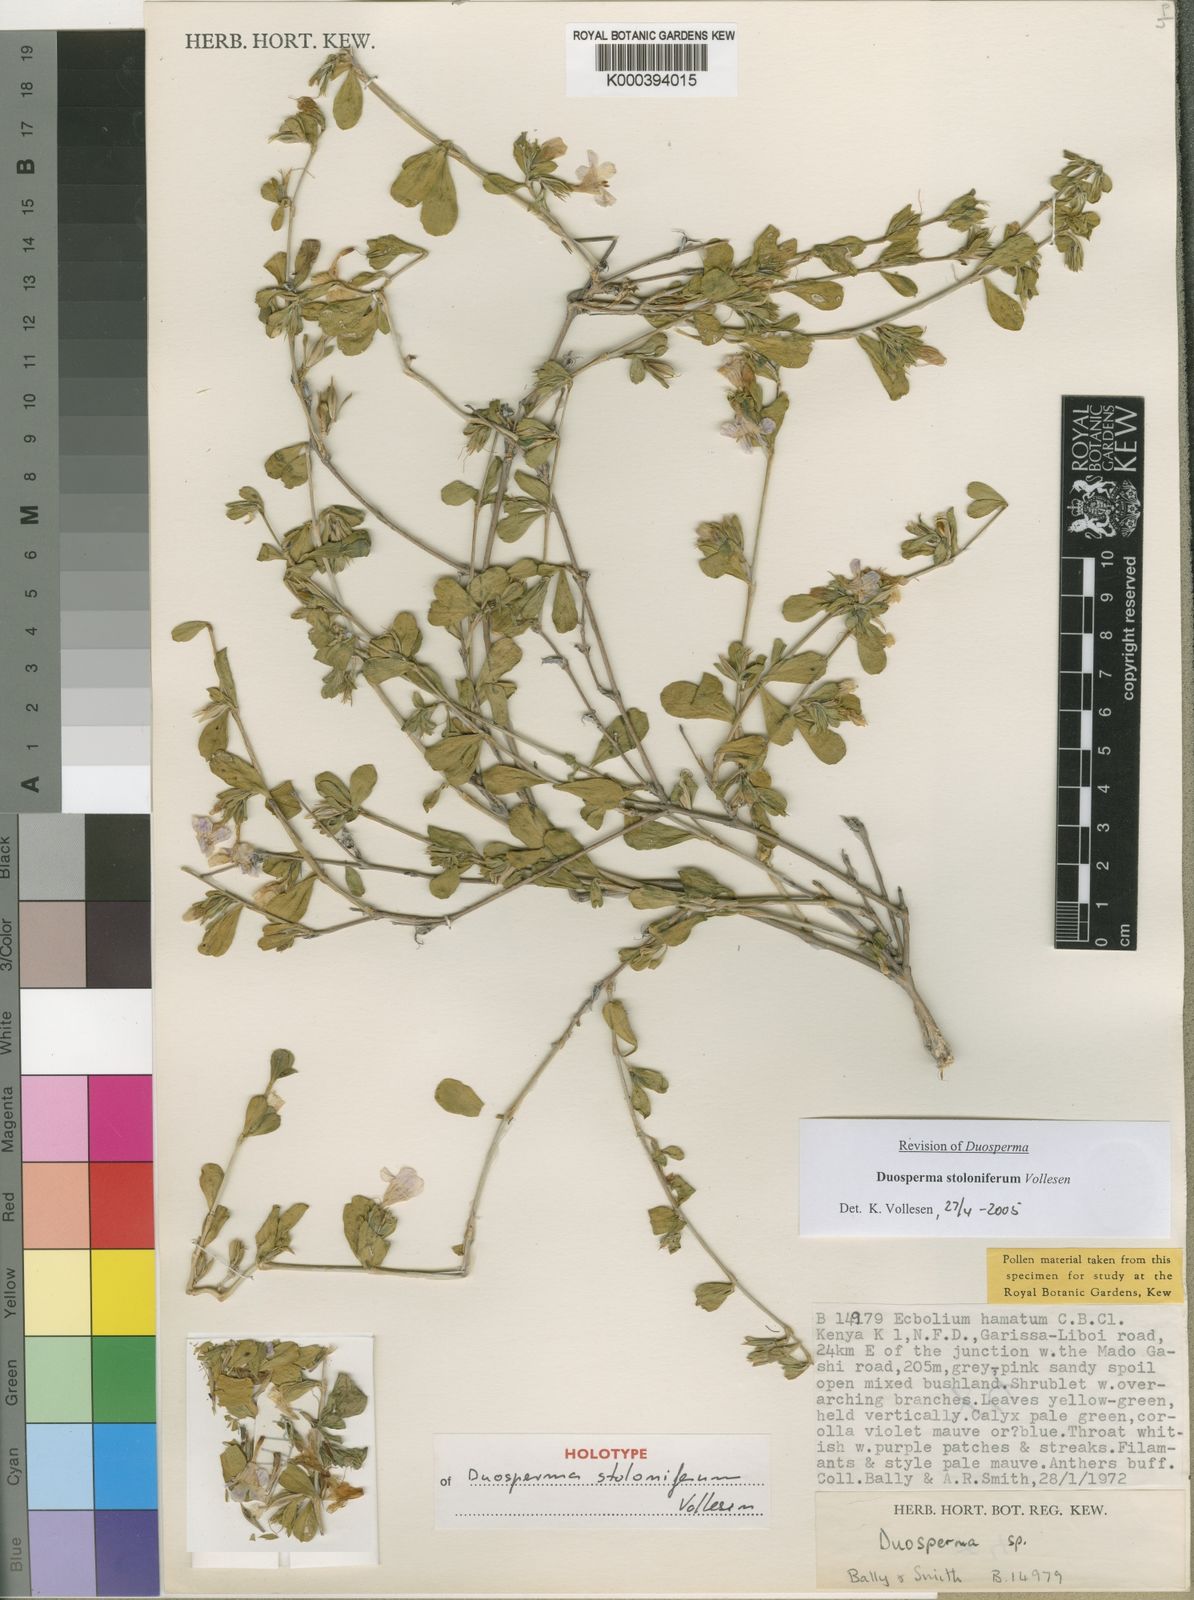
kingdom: Plantae
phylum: Tracheophyta
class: Magnoliopsida
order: Lamiales
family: Acanthaceae
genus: Duosperma
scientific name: Duosperma stoloniferum
